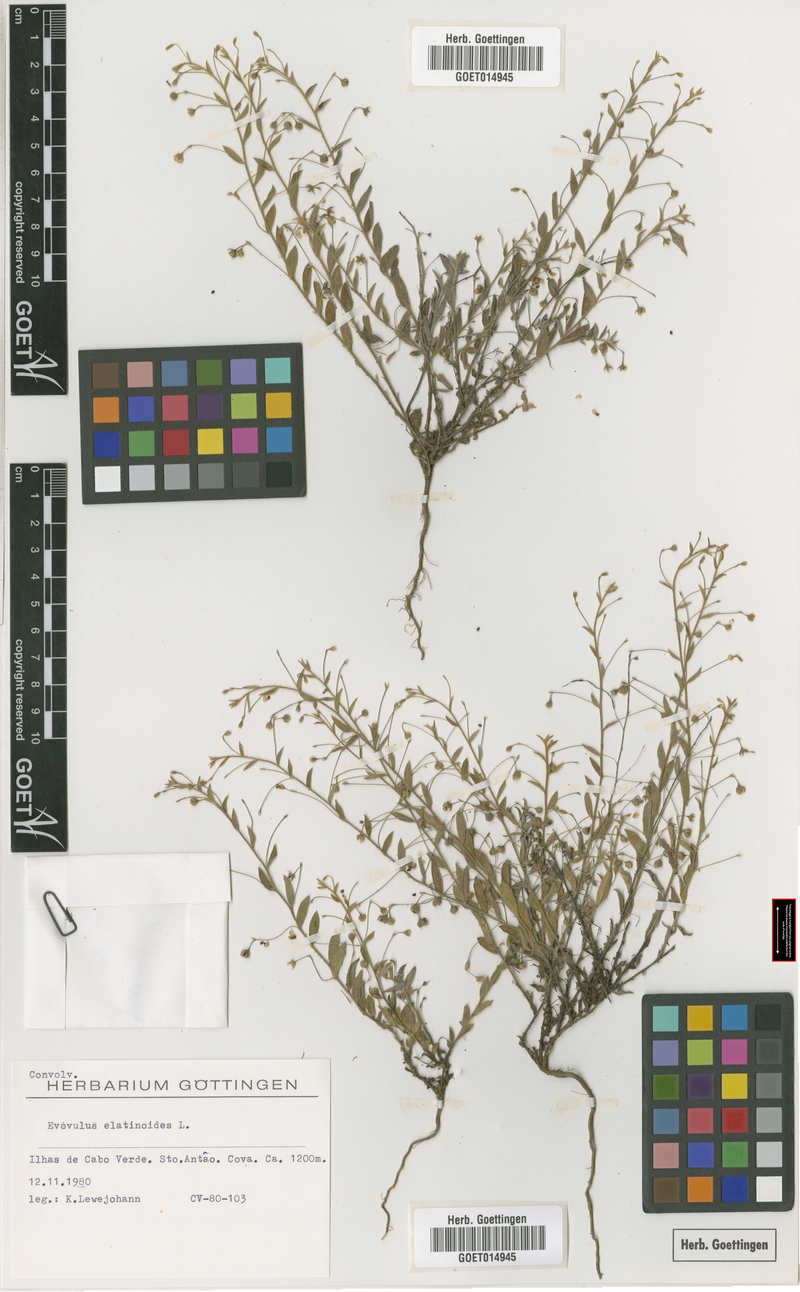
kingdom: Plantae
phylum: Tracheophyta
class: Magnoliopsida
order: Solanales
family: Convolvulaceae
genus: Evolvulus
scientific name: Evolvulus
